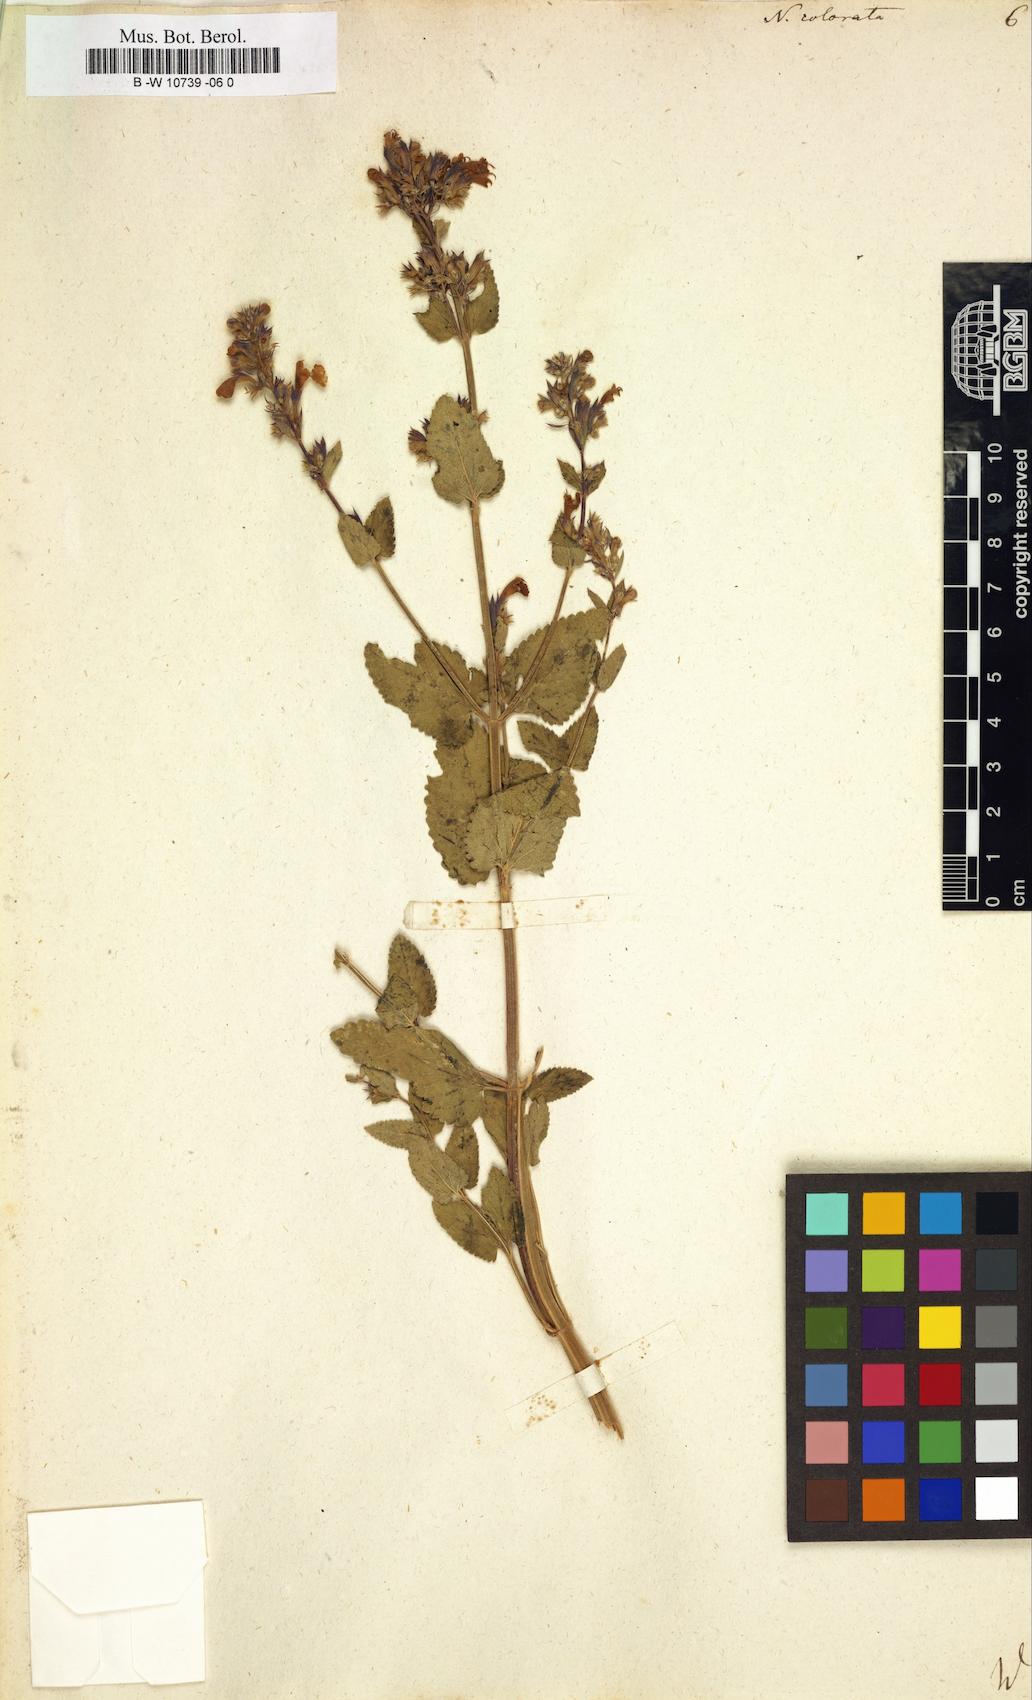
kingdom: Plantae
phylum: Tracheophyta
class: Magnoliopsida
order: Lamiales
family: Lamiaceae
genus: Nepeta
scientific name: Nepeta grandiflora
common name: Caucasus catmint
